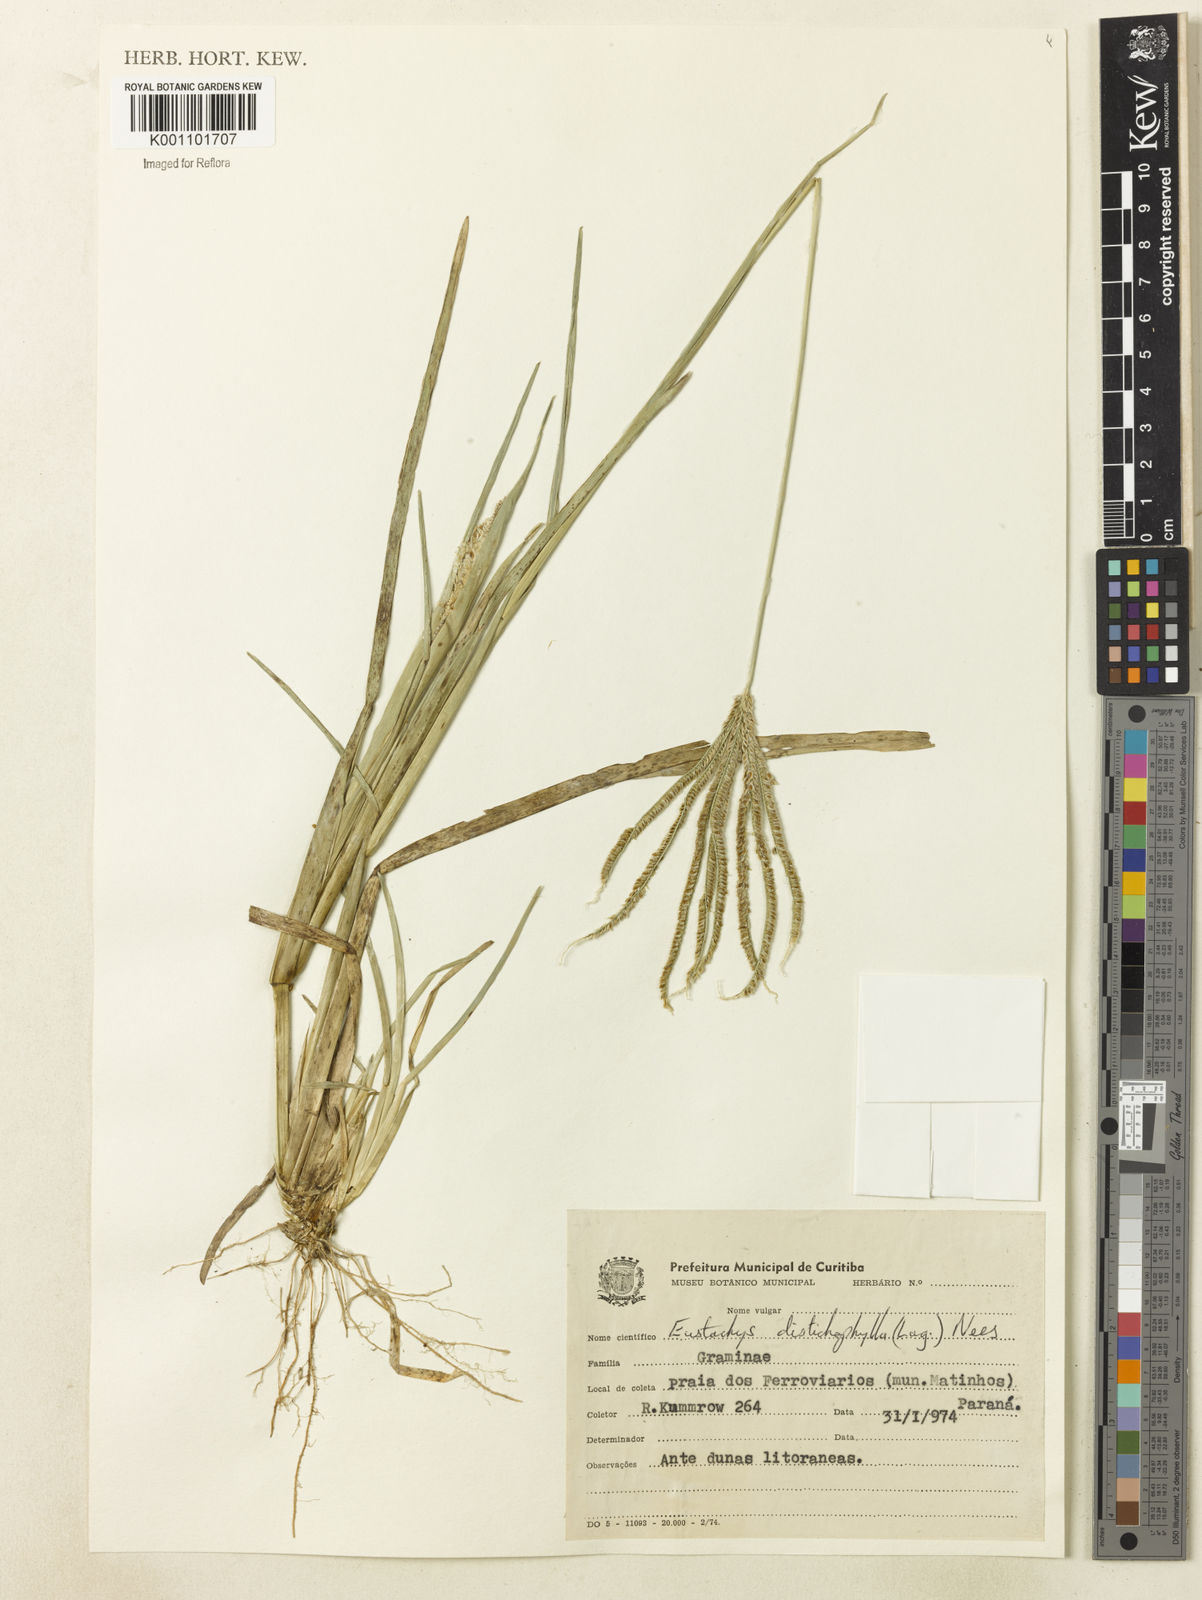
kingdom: Plantae
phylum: Tracheophyta
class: Liliopsida
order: Poales
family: Poaceae
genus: Eustachys
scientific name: Eustachys distichophylla
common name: Weeping fingergrass
